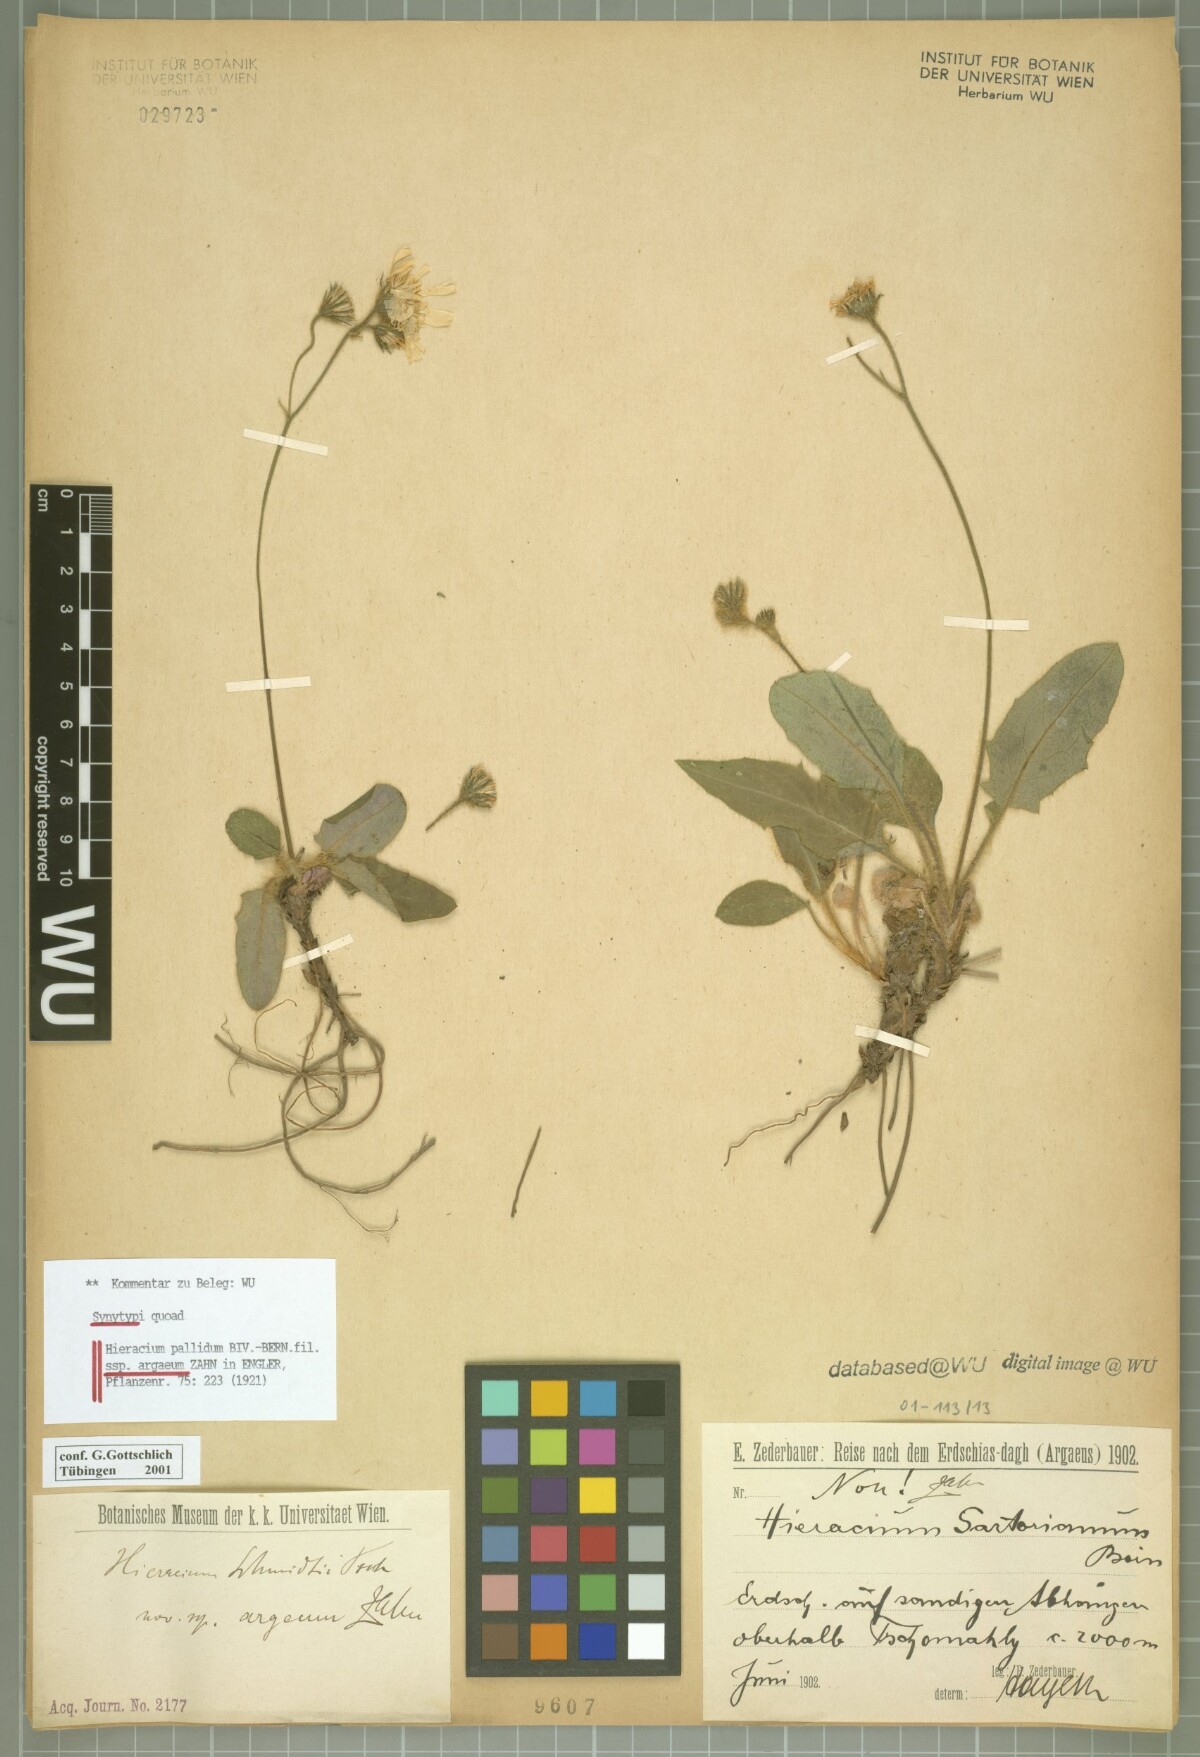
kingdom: Plantae
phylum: Tracheophyta
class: Magnoliopsida
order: Asterales
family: Asteraceae
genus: Hieracium
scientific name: Hieracium schmidtii
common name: Schmidt's hawkweed
